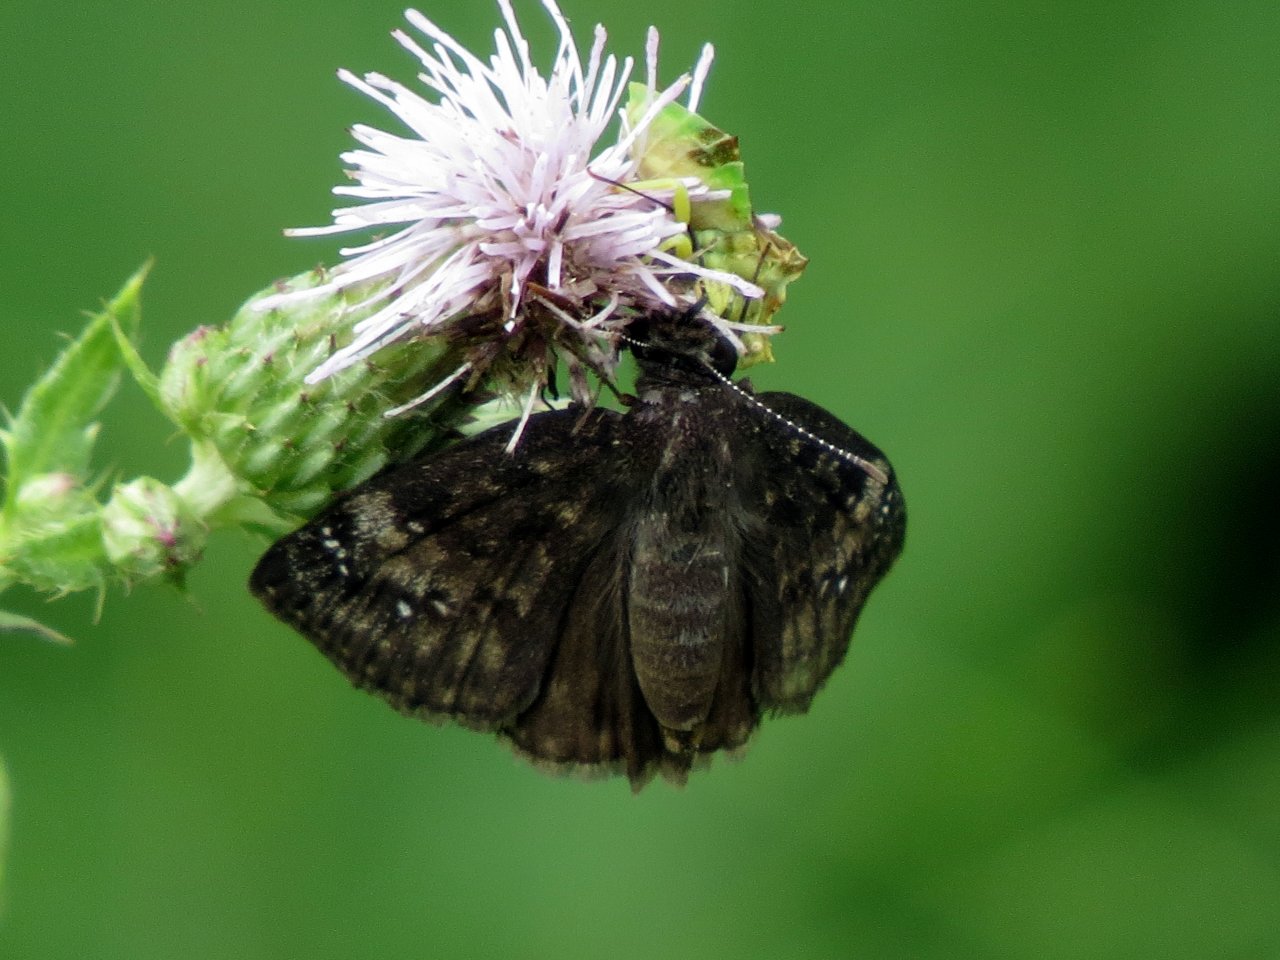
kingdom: Animalia
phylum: Arthropoda
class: Insecta
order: Lepidoptera
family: Hesperiidae
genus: Gesta
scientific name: Gesta
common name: Wild Indigo Duskywing
